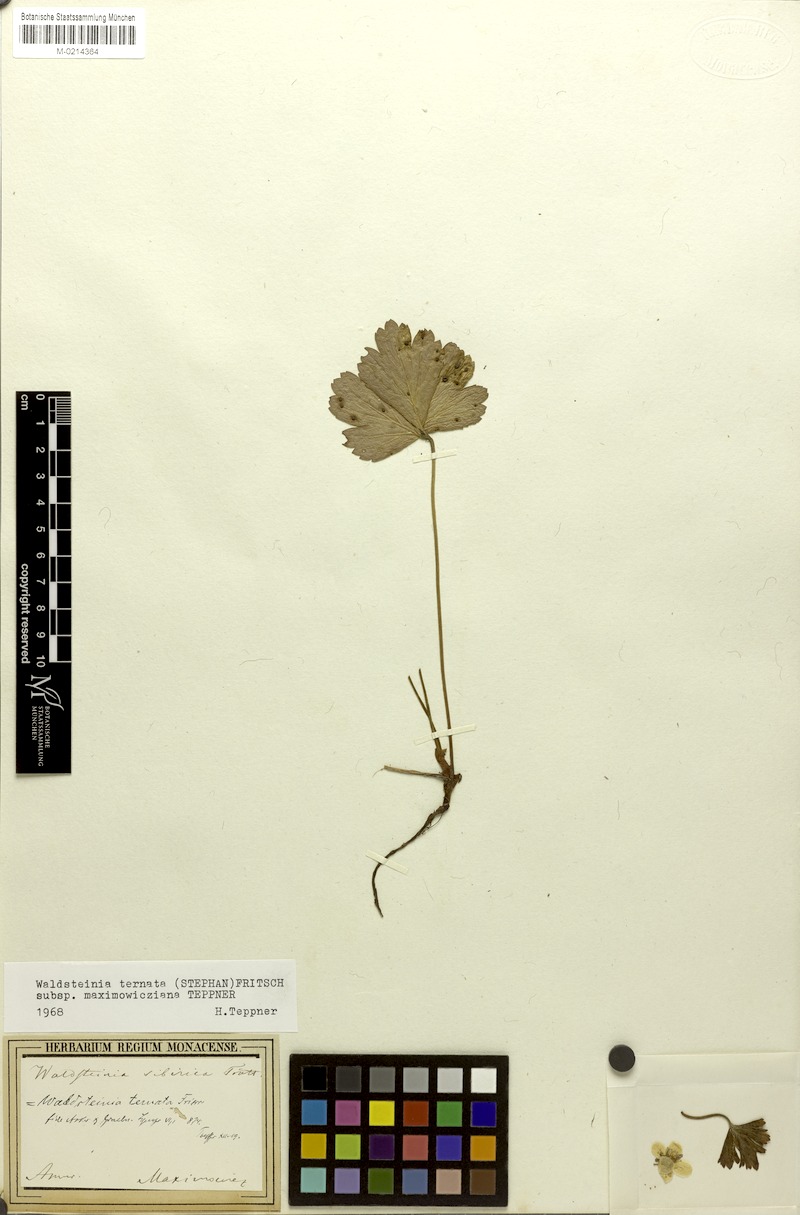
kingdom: Plantae
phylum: Tracheophyta
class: Magnoliopsida
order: Rosales
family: Rosaceae
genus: Geum
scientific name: Geum ternatum
